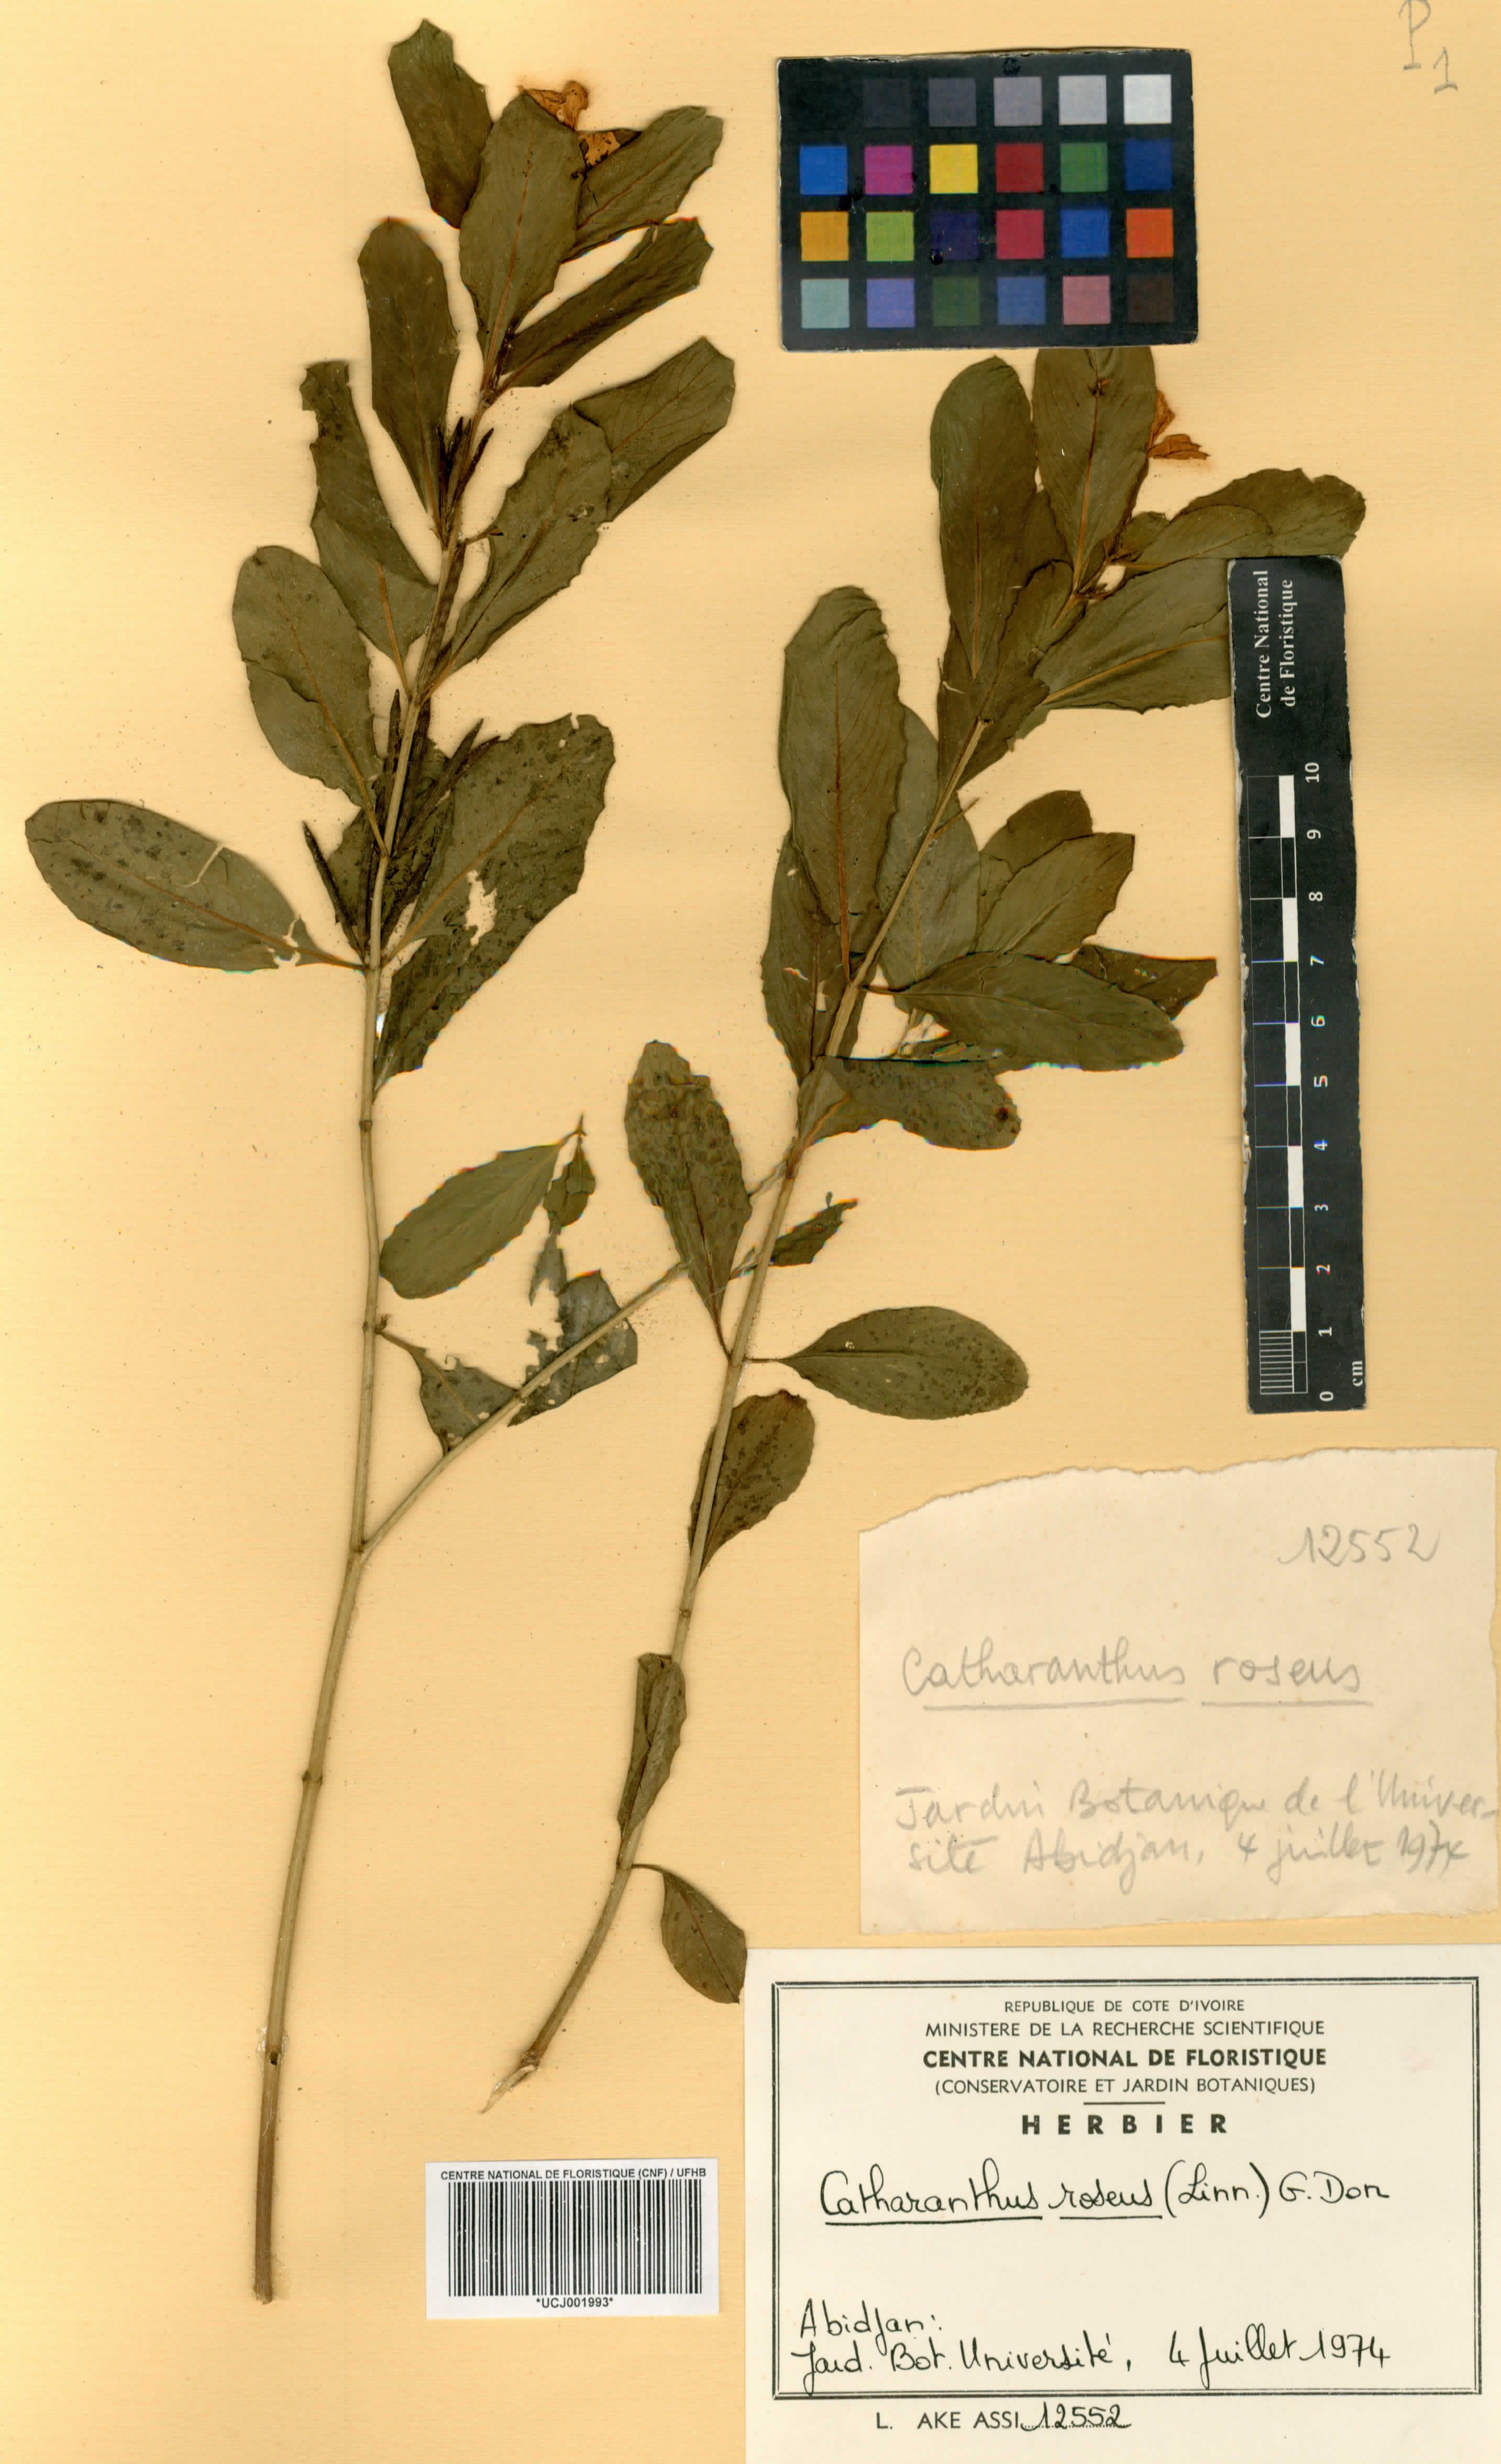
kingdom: Plantae
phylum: Tracheophyta
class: Magnoliopsida
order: Gentianales
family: Apocynaceae
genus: Catharanthus
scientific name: Catharanthus roseus
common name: Madagascar periwinkle
